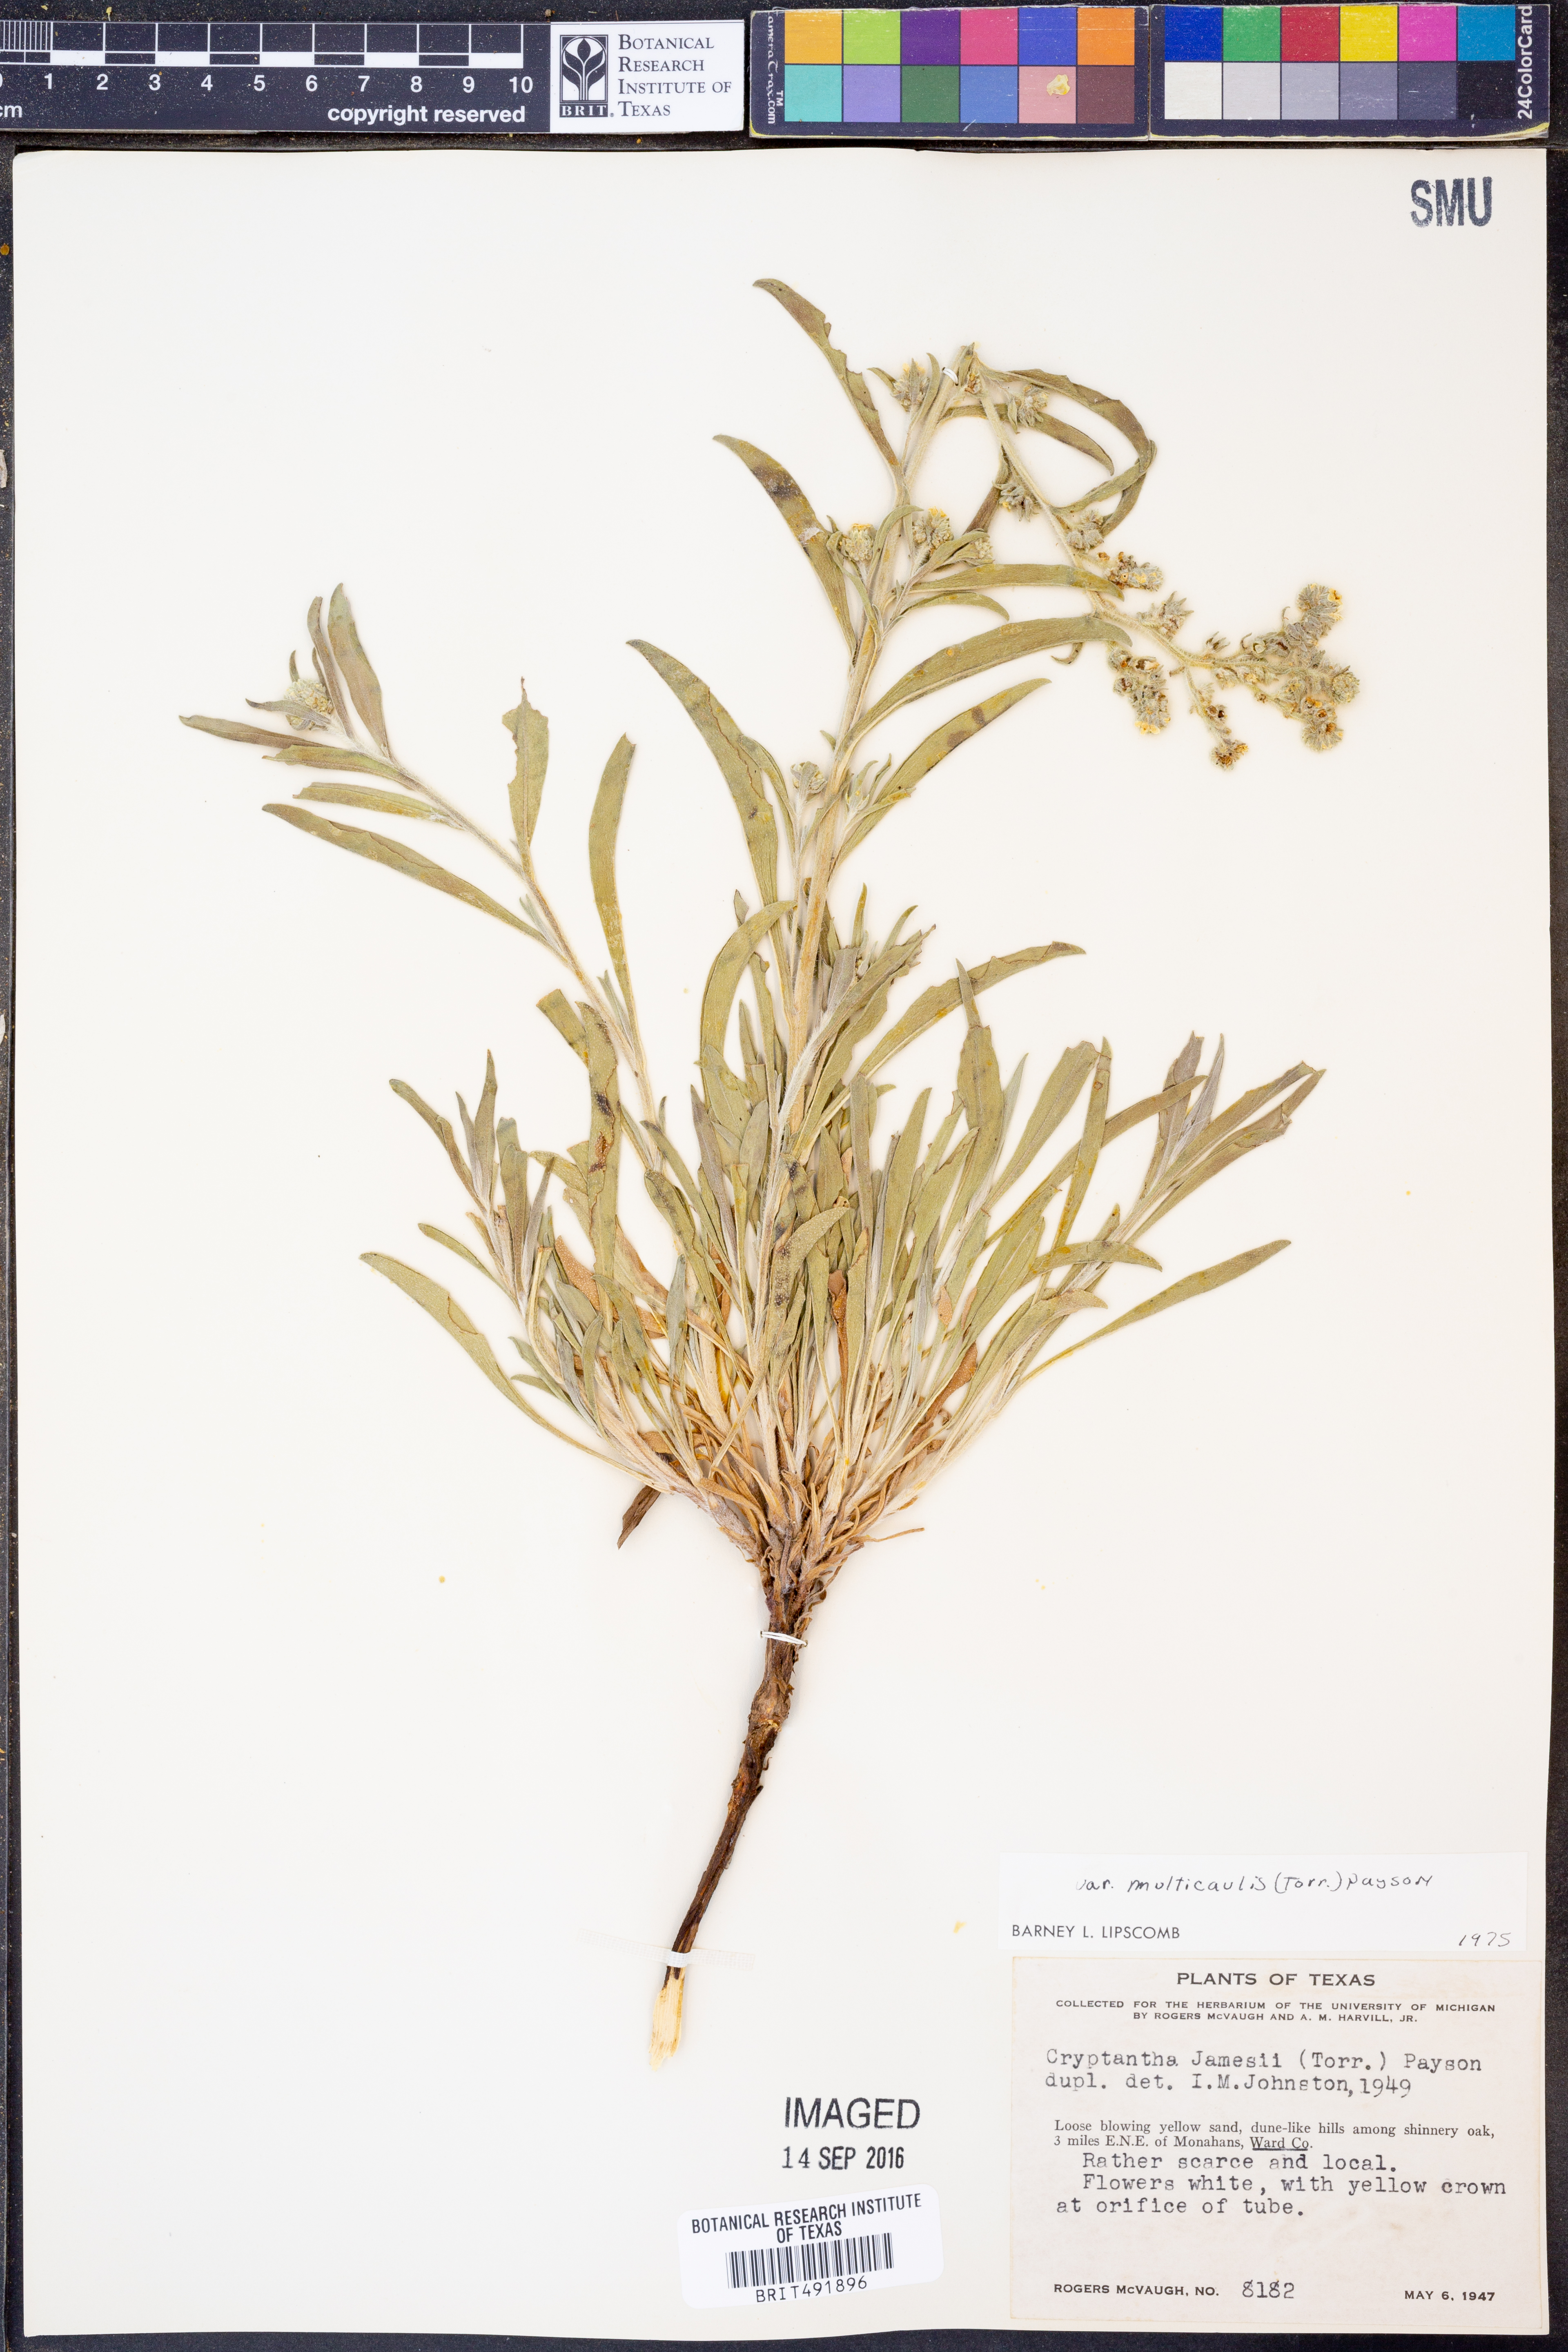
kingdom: Plantae
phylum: Tracheophyta
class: Magnoliopsida
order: Boraginales
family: Boraginaceae
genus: Oreocarya
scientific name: Oreocarya suffruticosa
